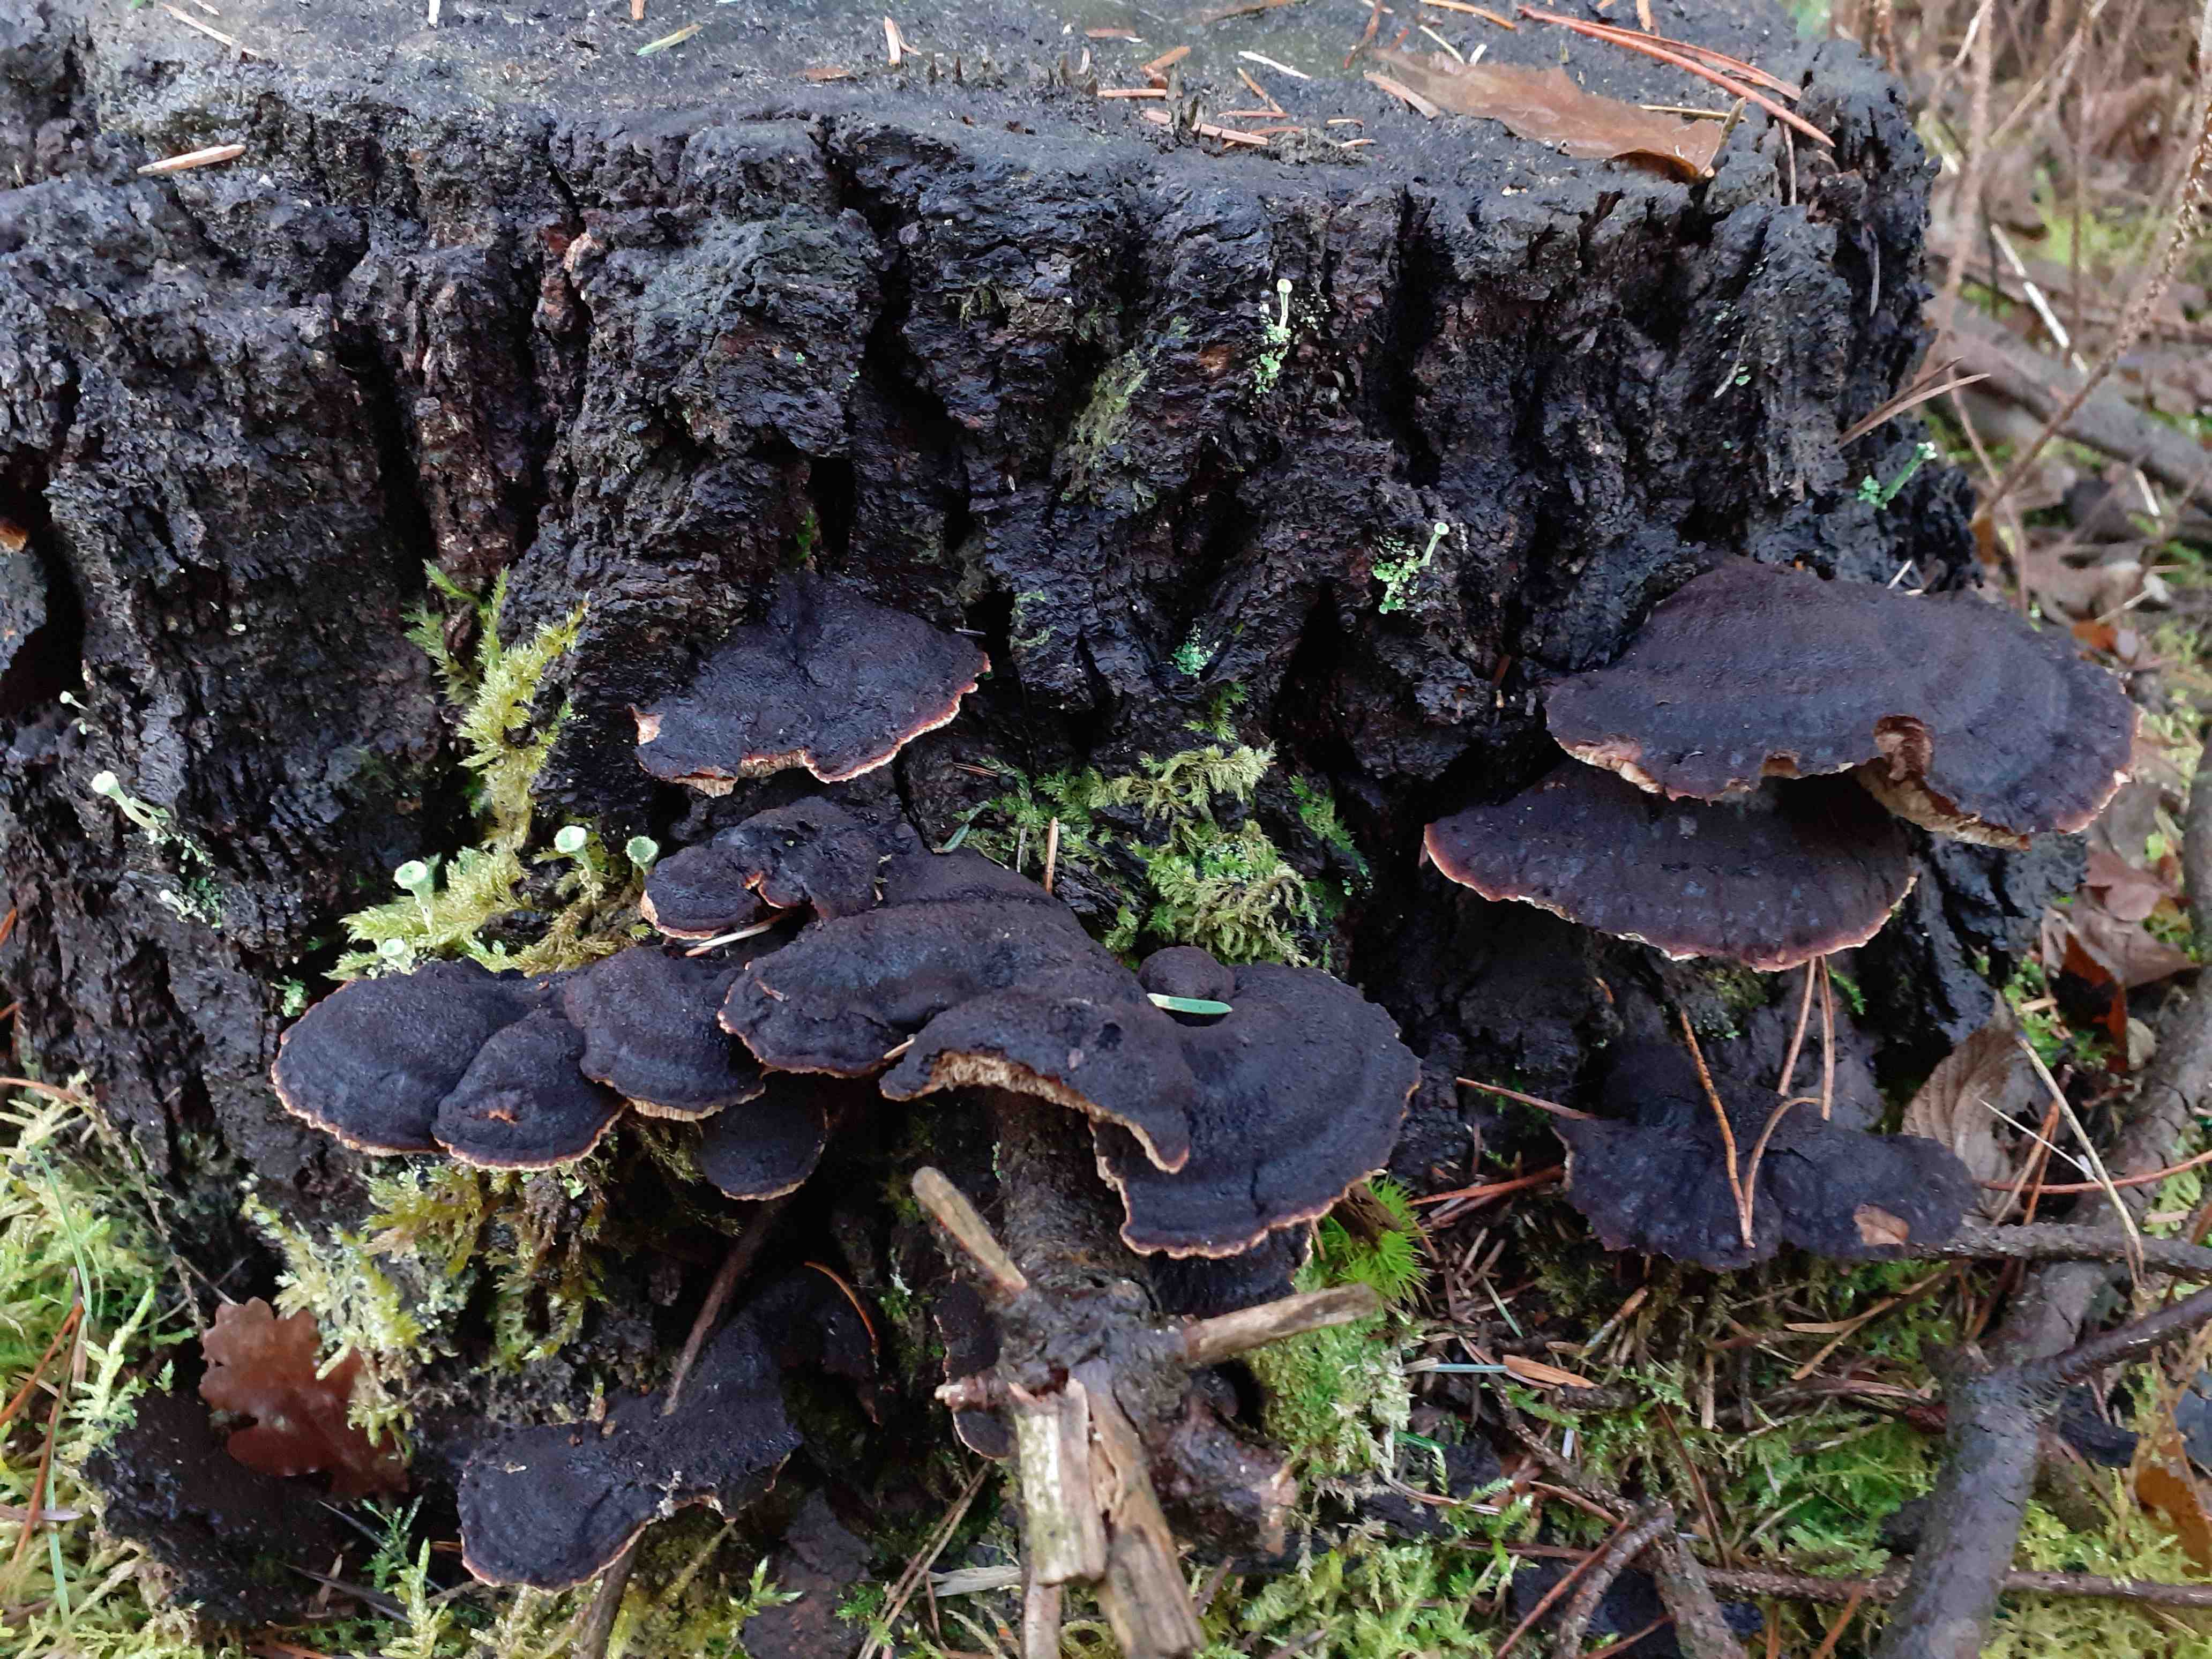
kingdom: Fungi
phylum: Basidiomycota
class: Agaricomycetes
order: Polyporales
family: Ischnodermataceae
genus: Ischnoderma
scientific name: Ischnoderma benzoinum
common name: gran-tjæreporesvamp
